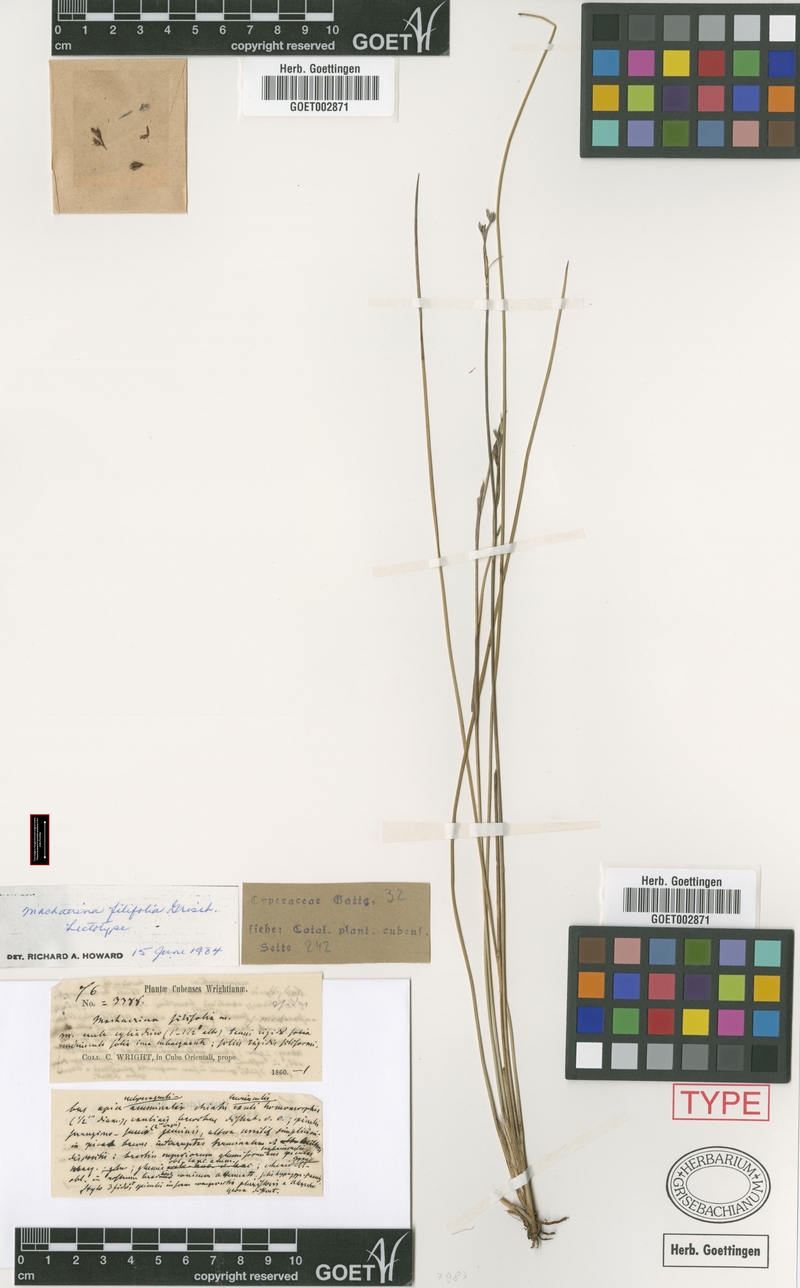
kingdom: Plantae
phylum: Tracheophyta
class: Liliopsida
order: Poales
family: Cyperaceae
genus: Machaerina
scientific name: Machaerina filifolia
